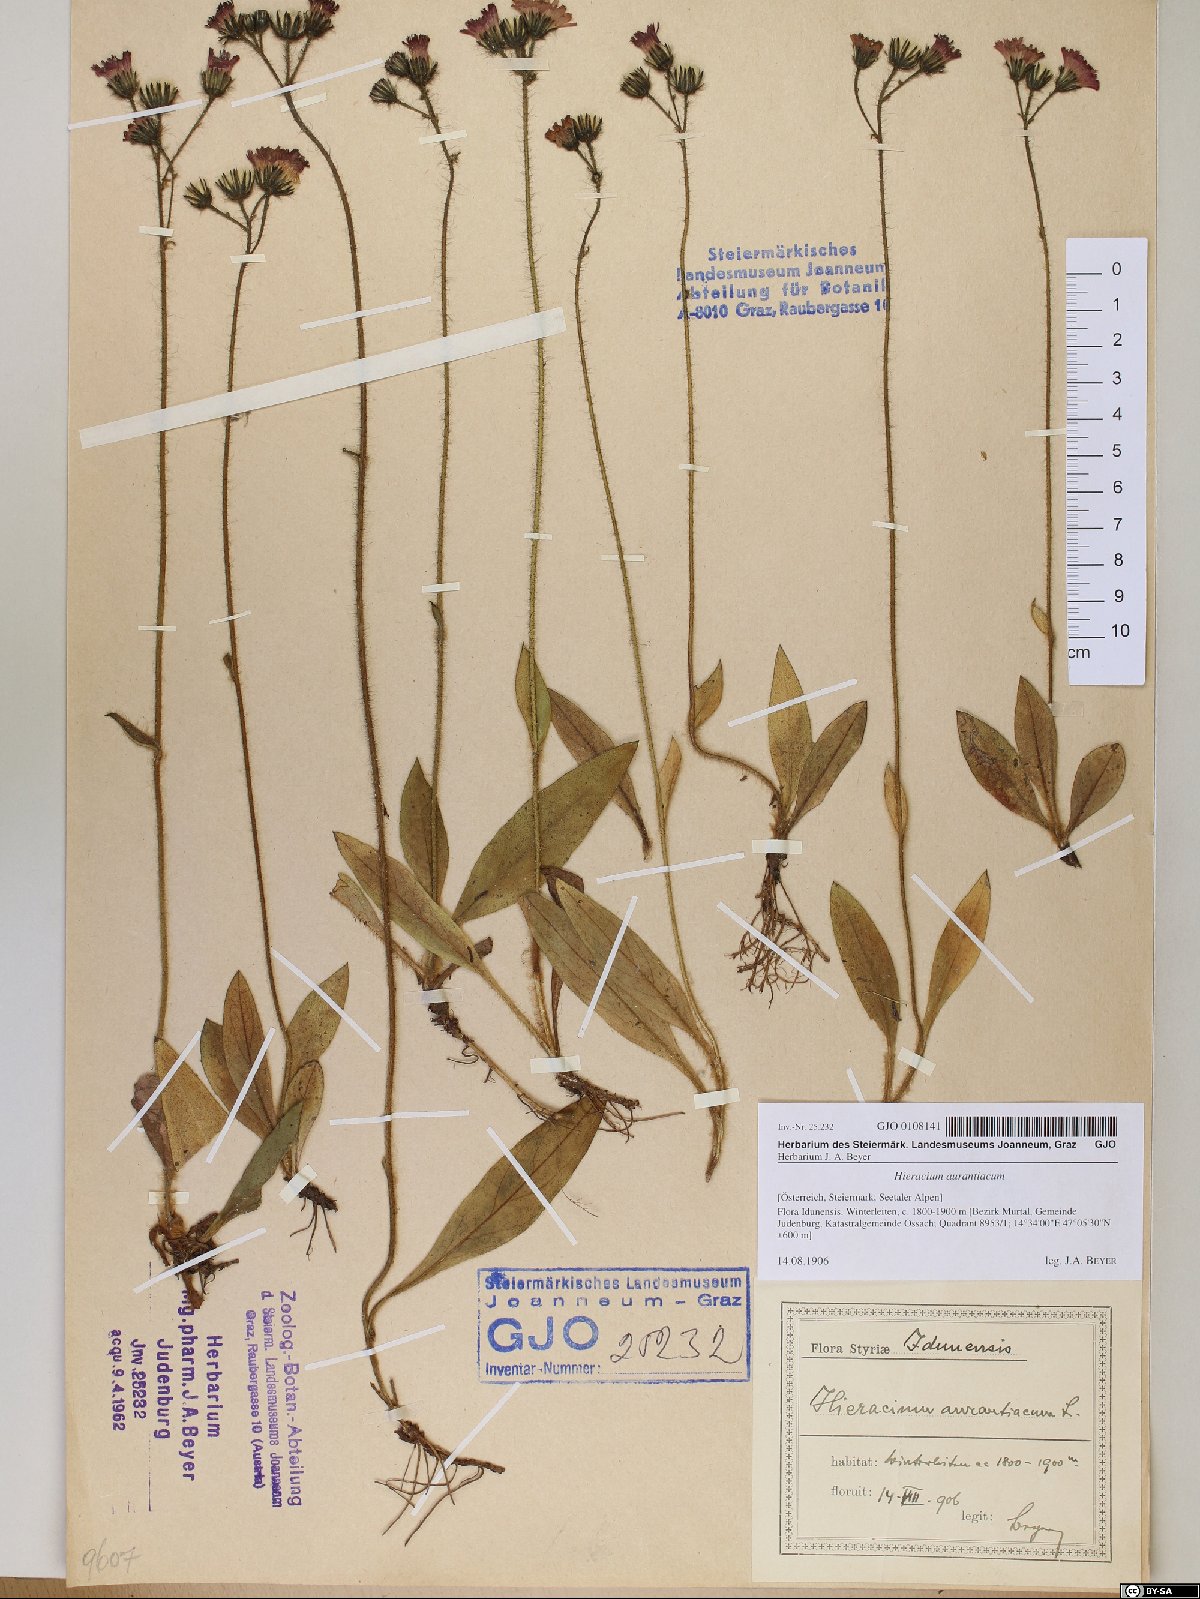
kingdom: Plantae
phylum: Tracheophyta
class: Magnoliopsida
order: Asterales
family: Asteraceae
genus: Pilosella
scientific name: Pilosella aurantiaca
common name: Fox-and-cubs
